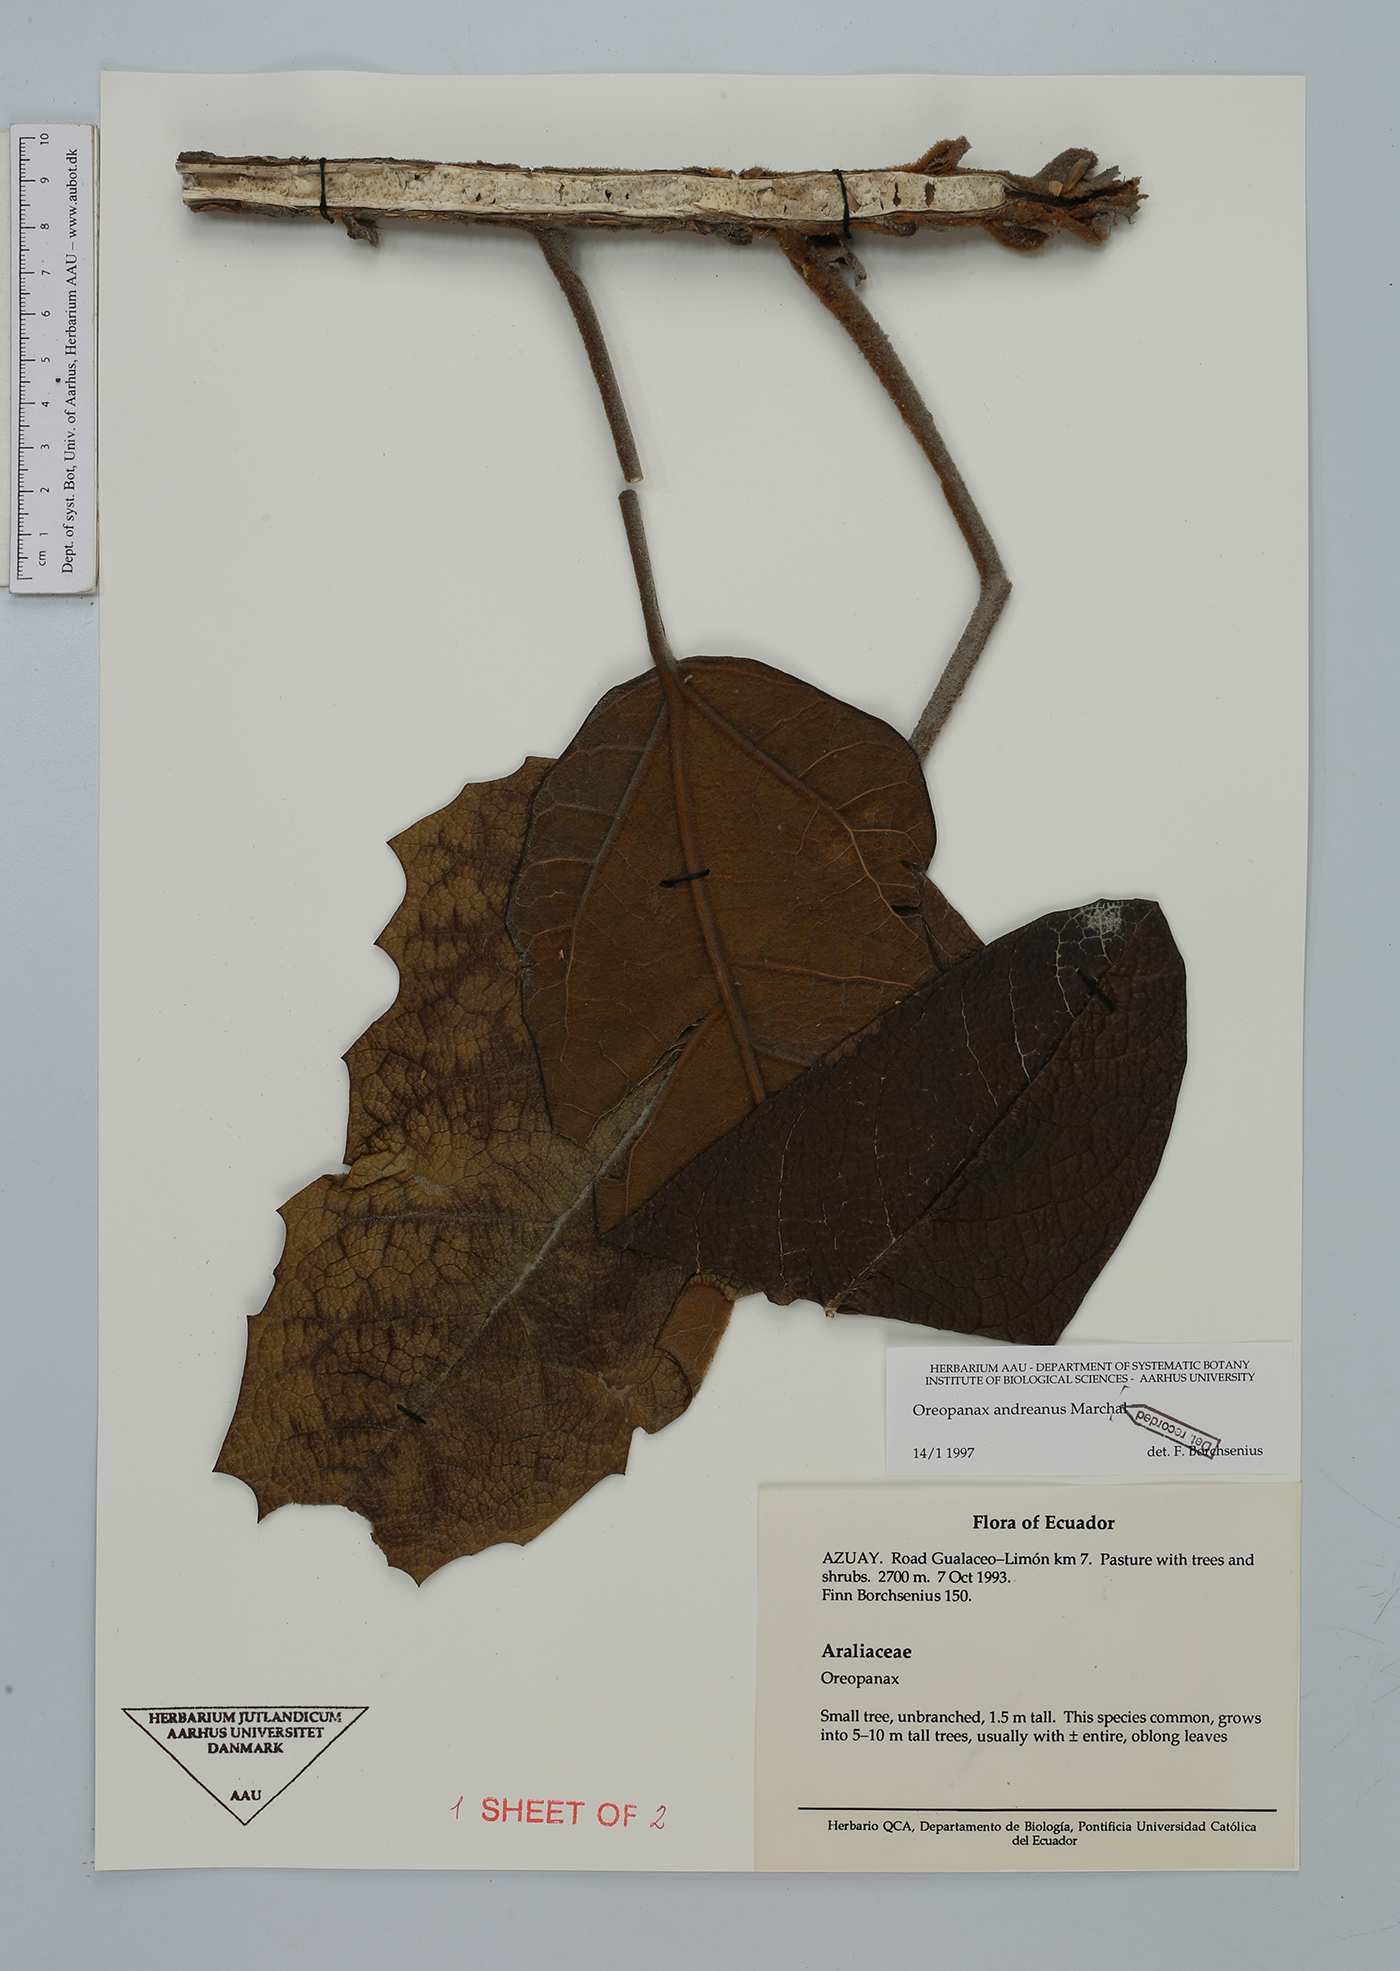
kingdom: Plantae
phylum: Tracheophyta
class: Magnoliopsida
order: Apiales
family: Araliaceae
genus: Oreopanax
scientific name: Oreopanax andreanus
